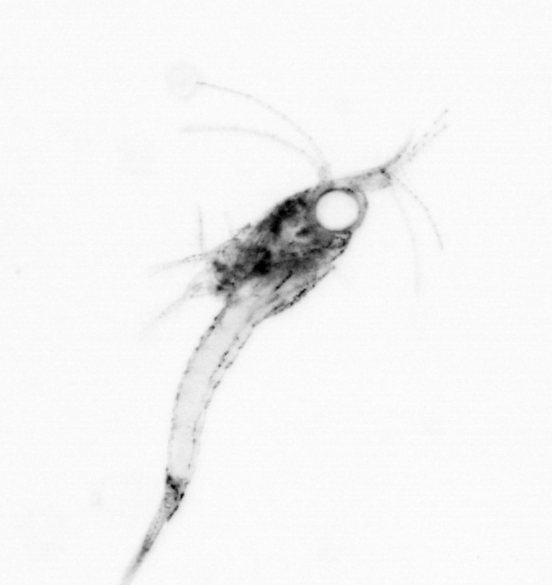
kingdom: Animalia
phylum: Arthropoda
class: Malacostraca
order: Decapoda
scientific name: Decapoda
